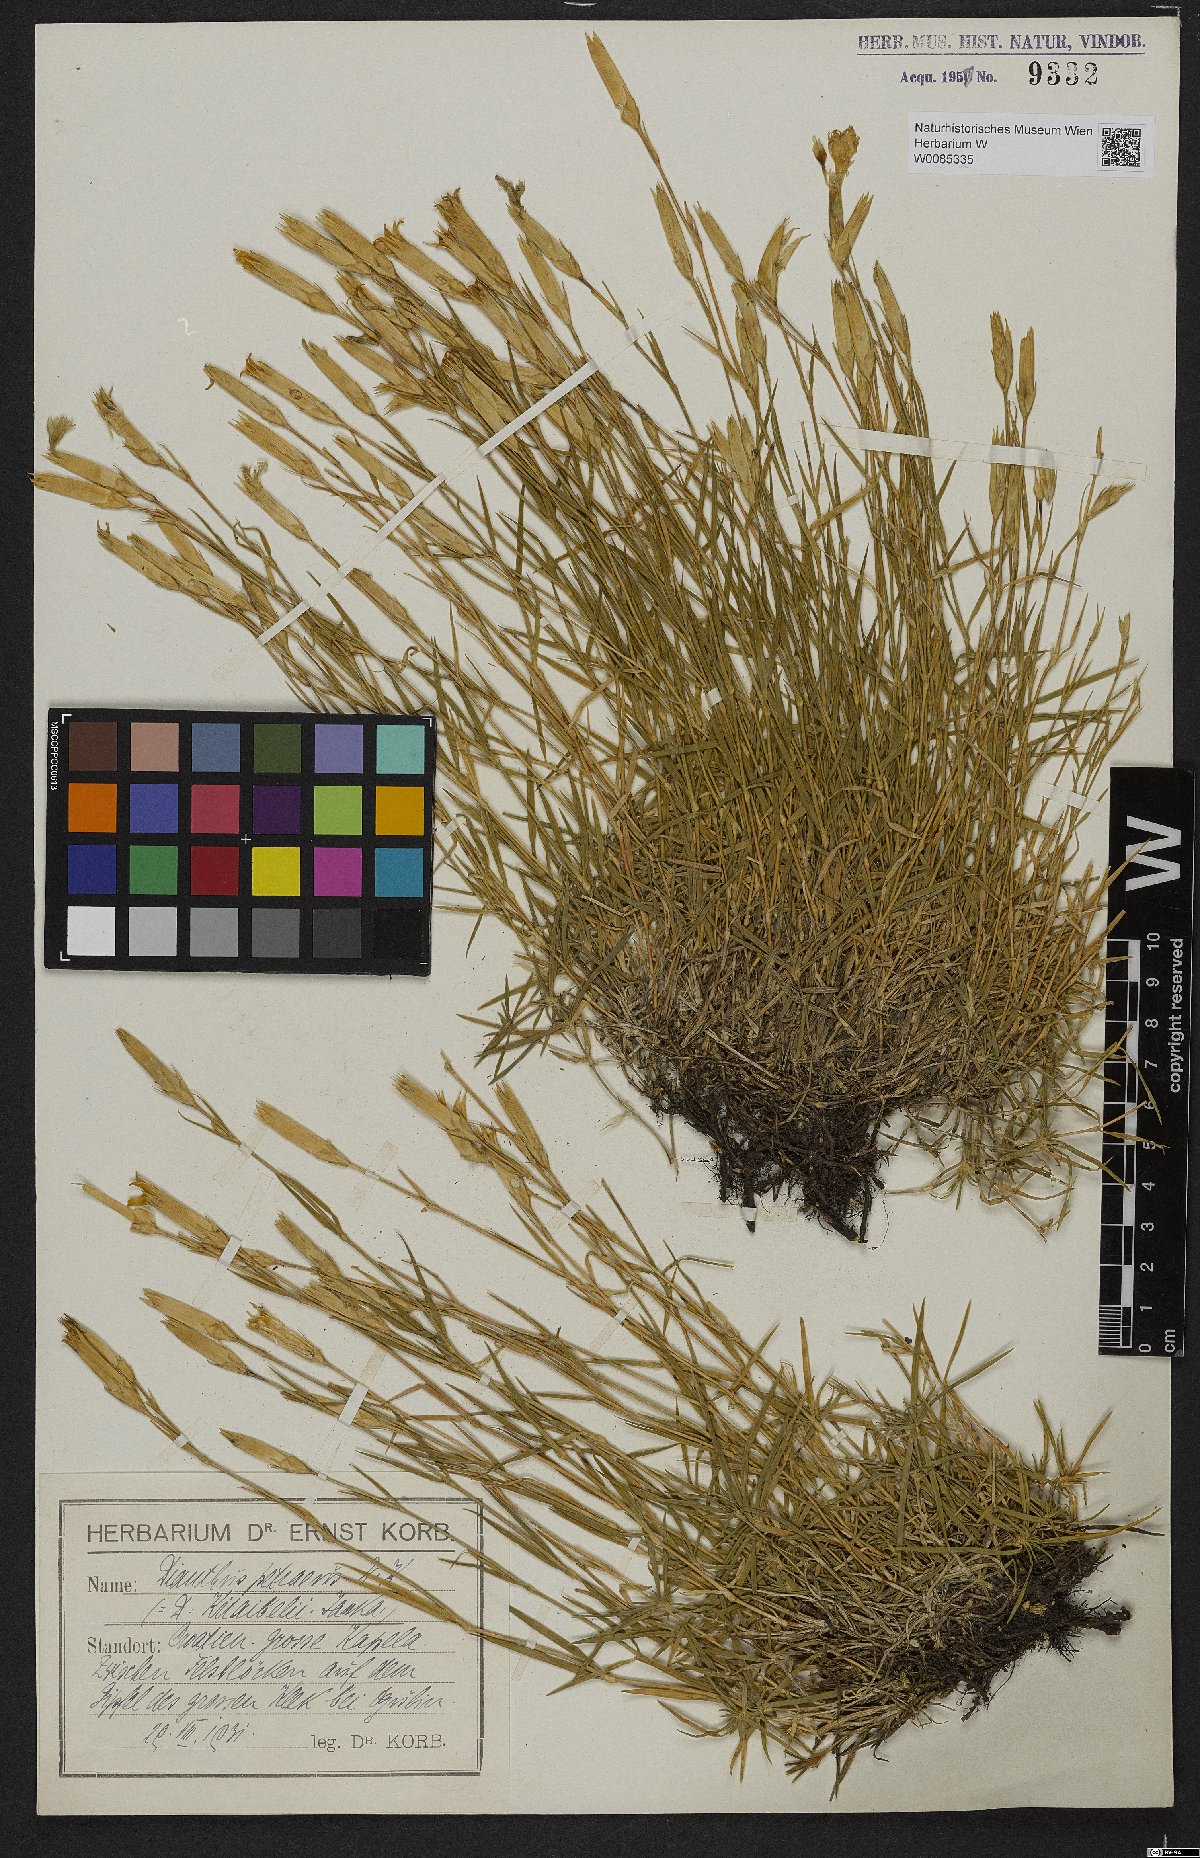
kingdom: Plantae
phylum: Tracheophyta
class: Magnoliopsida
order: Caryophyllales
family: Caryophyllaceae
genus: Dianthus
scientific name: Dianthus petraeus
